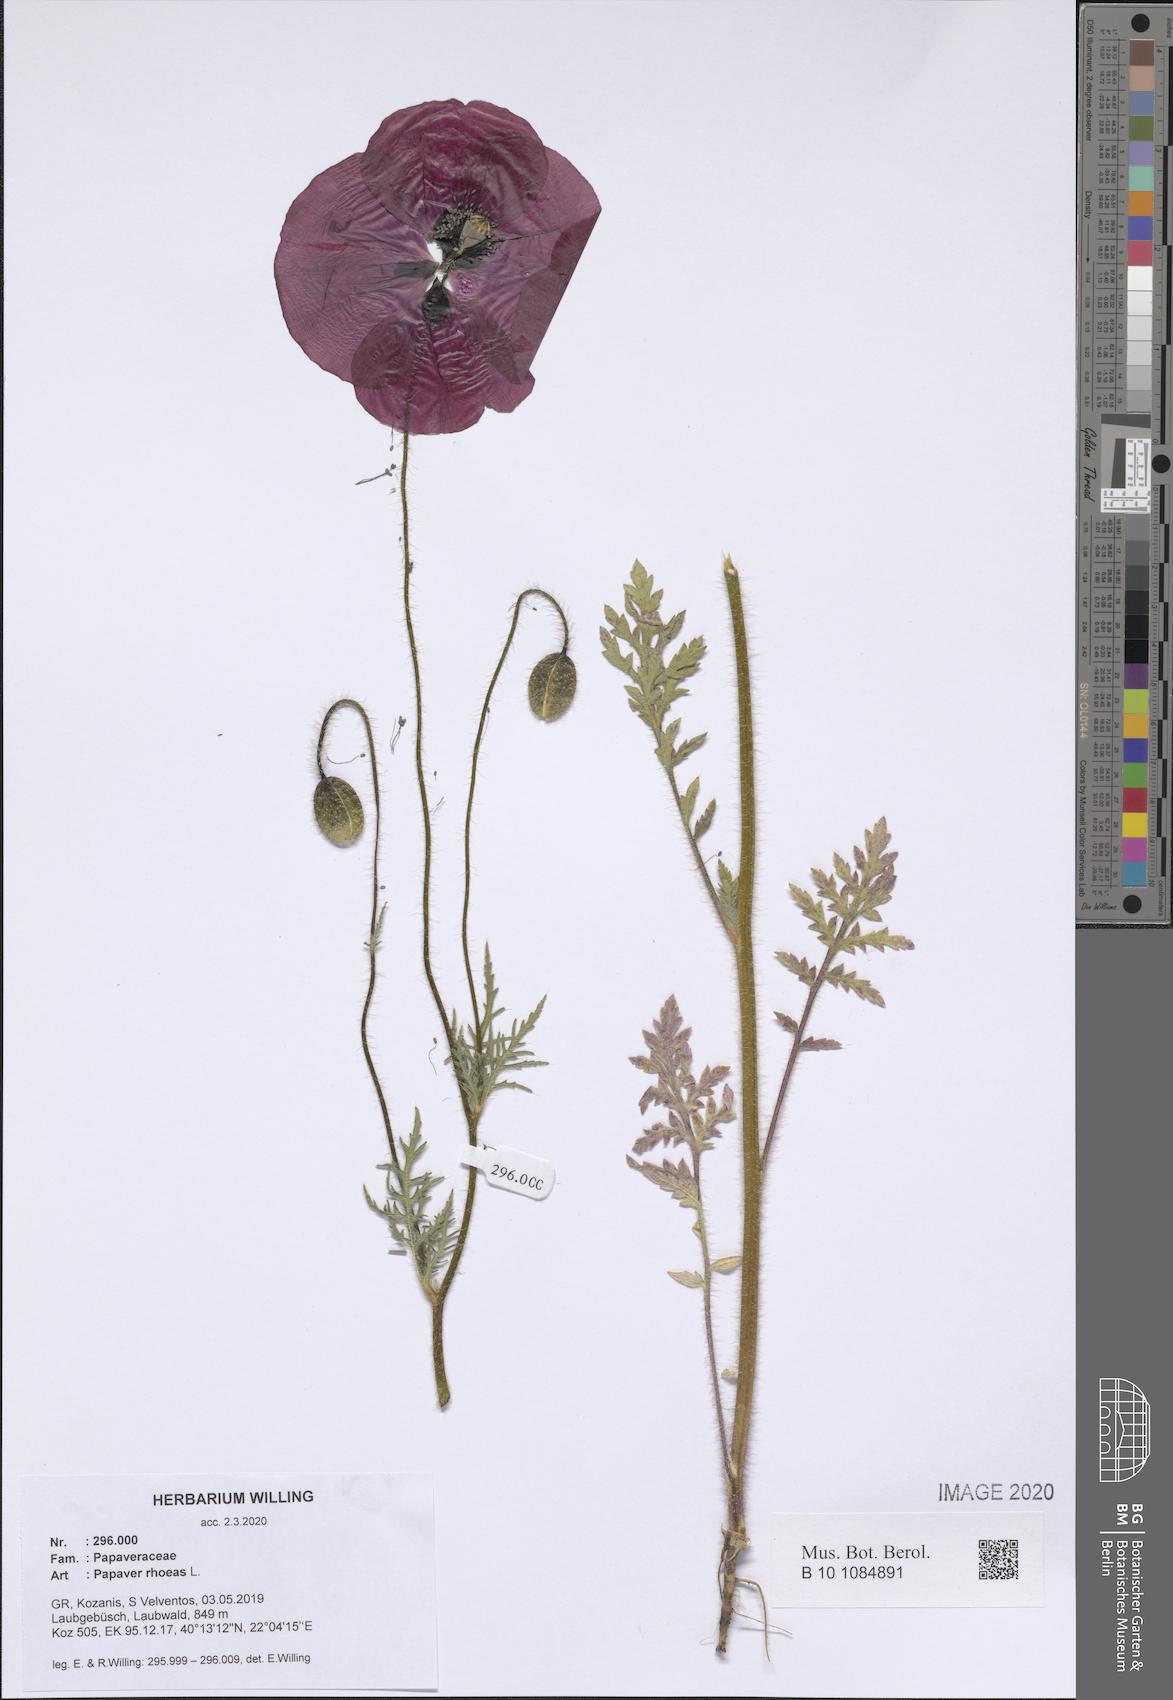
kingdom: Plantae
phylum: Tracheophyta
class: Magnoliopsida
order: Ranunculales
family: Papaveraceae
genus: Papaver
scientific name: Papaver rhoeas
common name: Corn poppy
